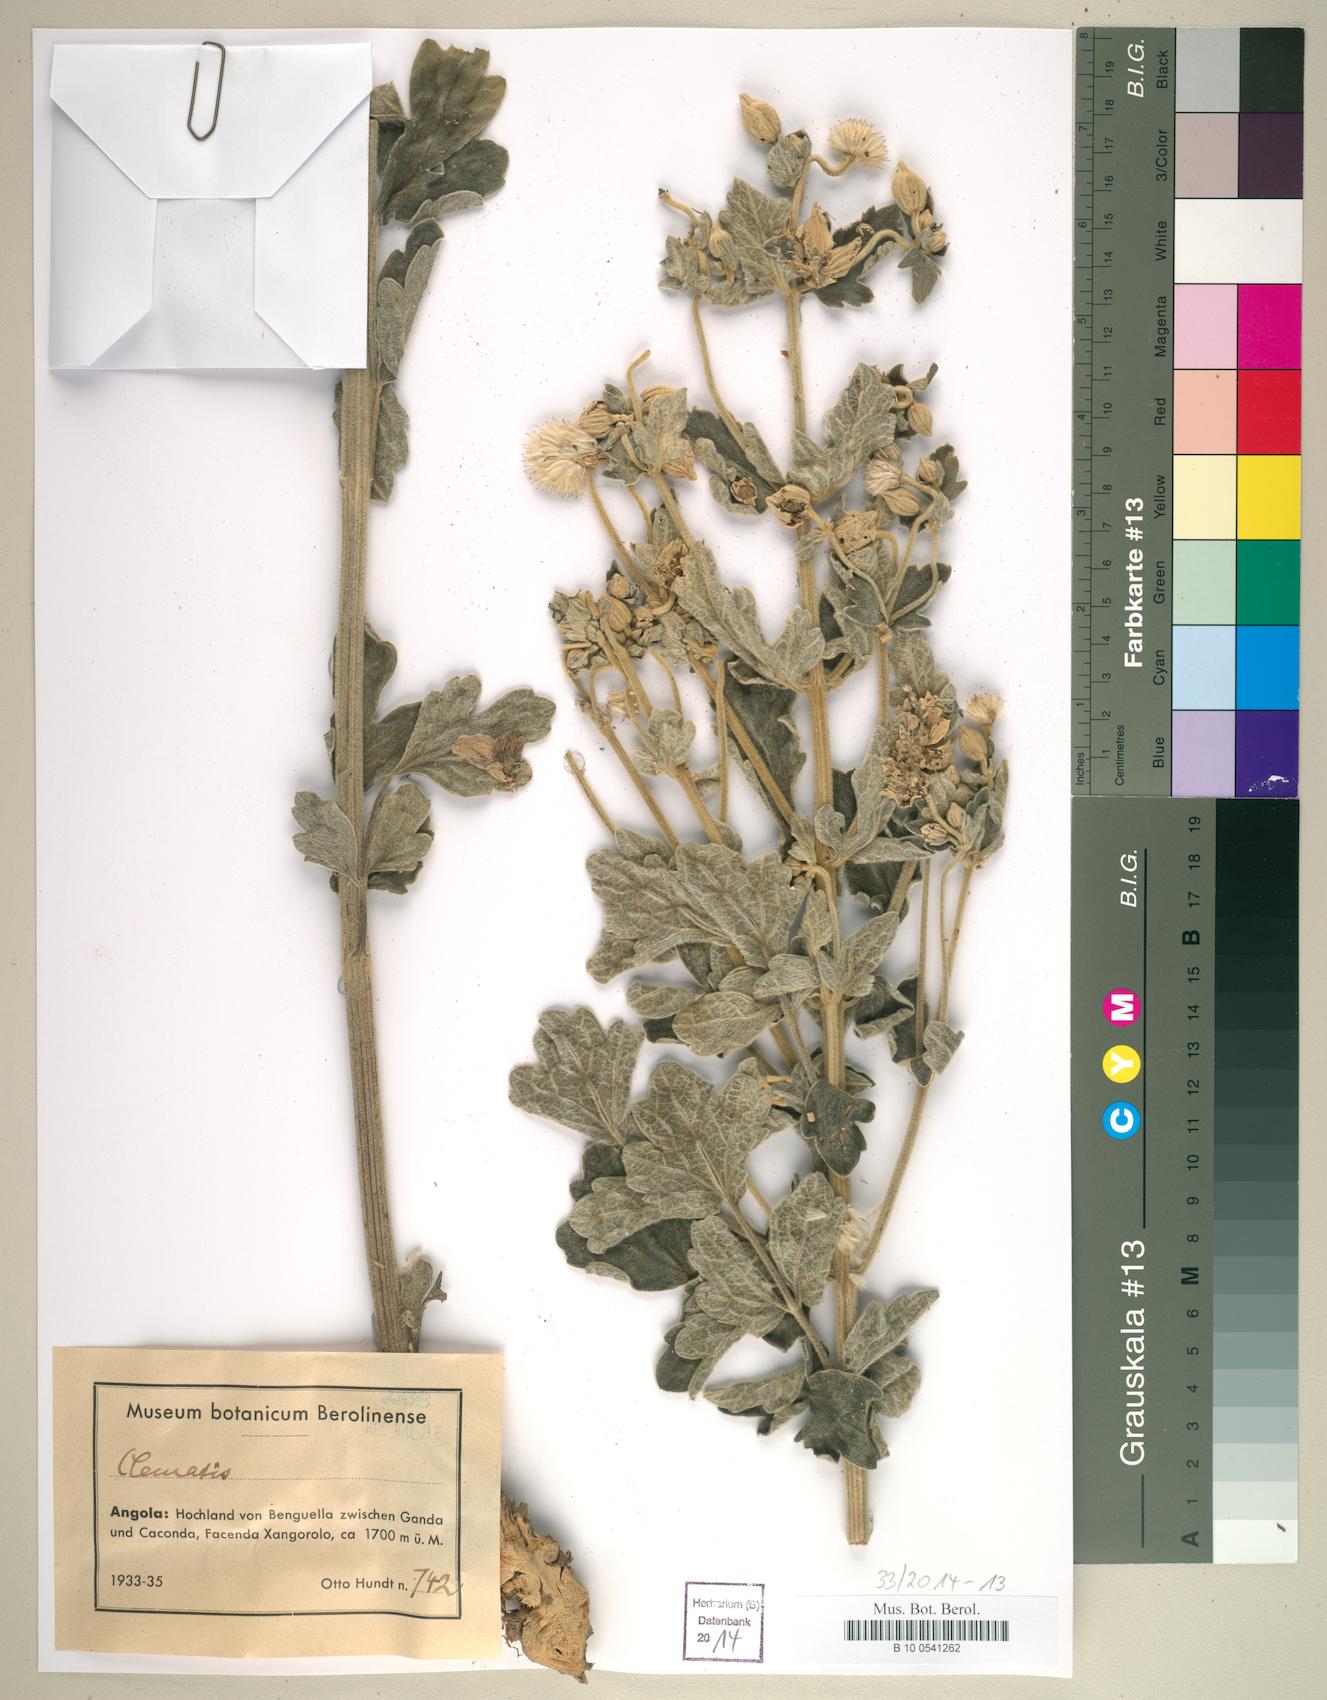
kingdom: Plantae
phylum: Tracheophyta
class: Magnoliopsida
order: Ranunculales
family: Ranunculaceae
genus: Clematis
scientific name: Clematis
